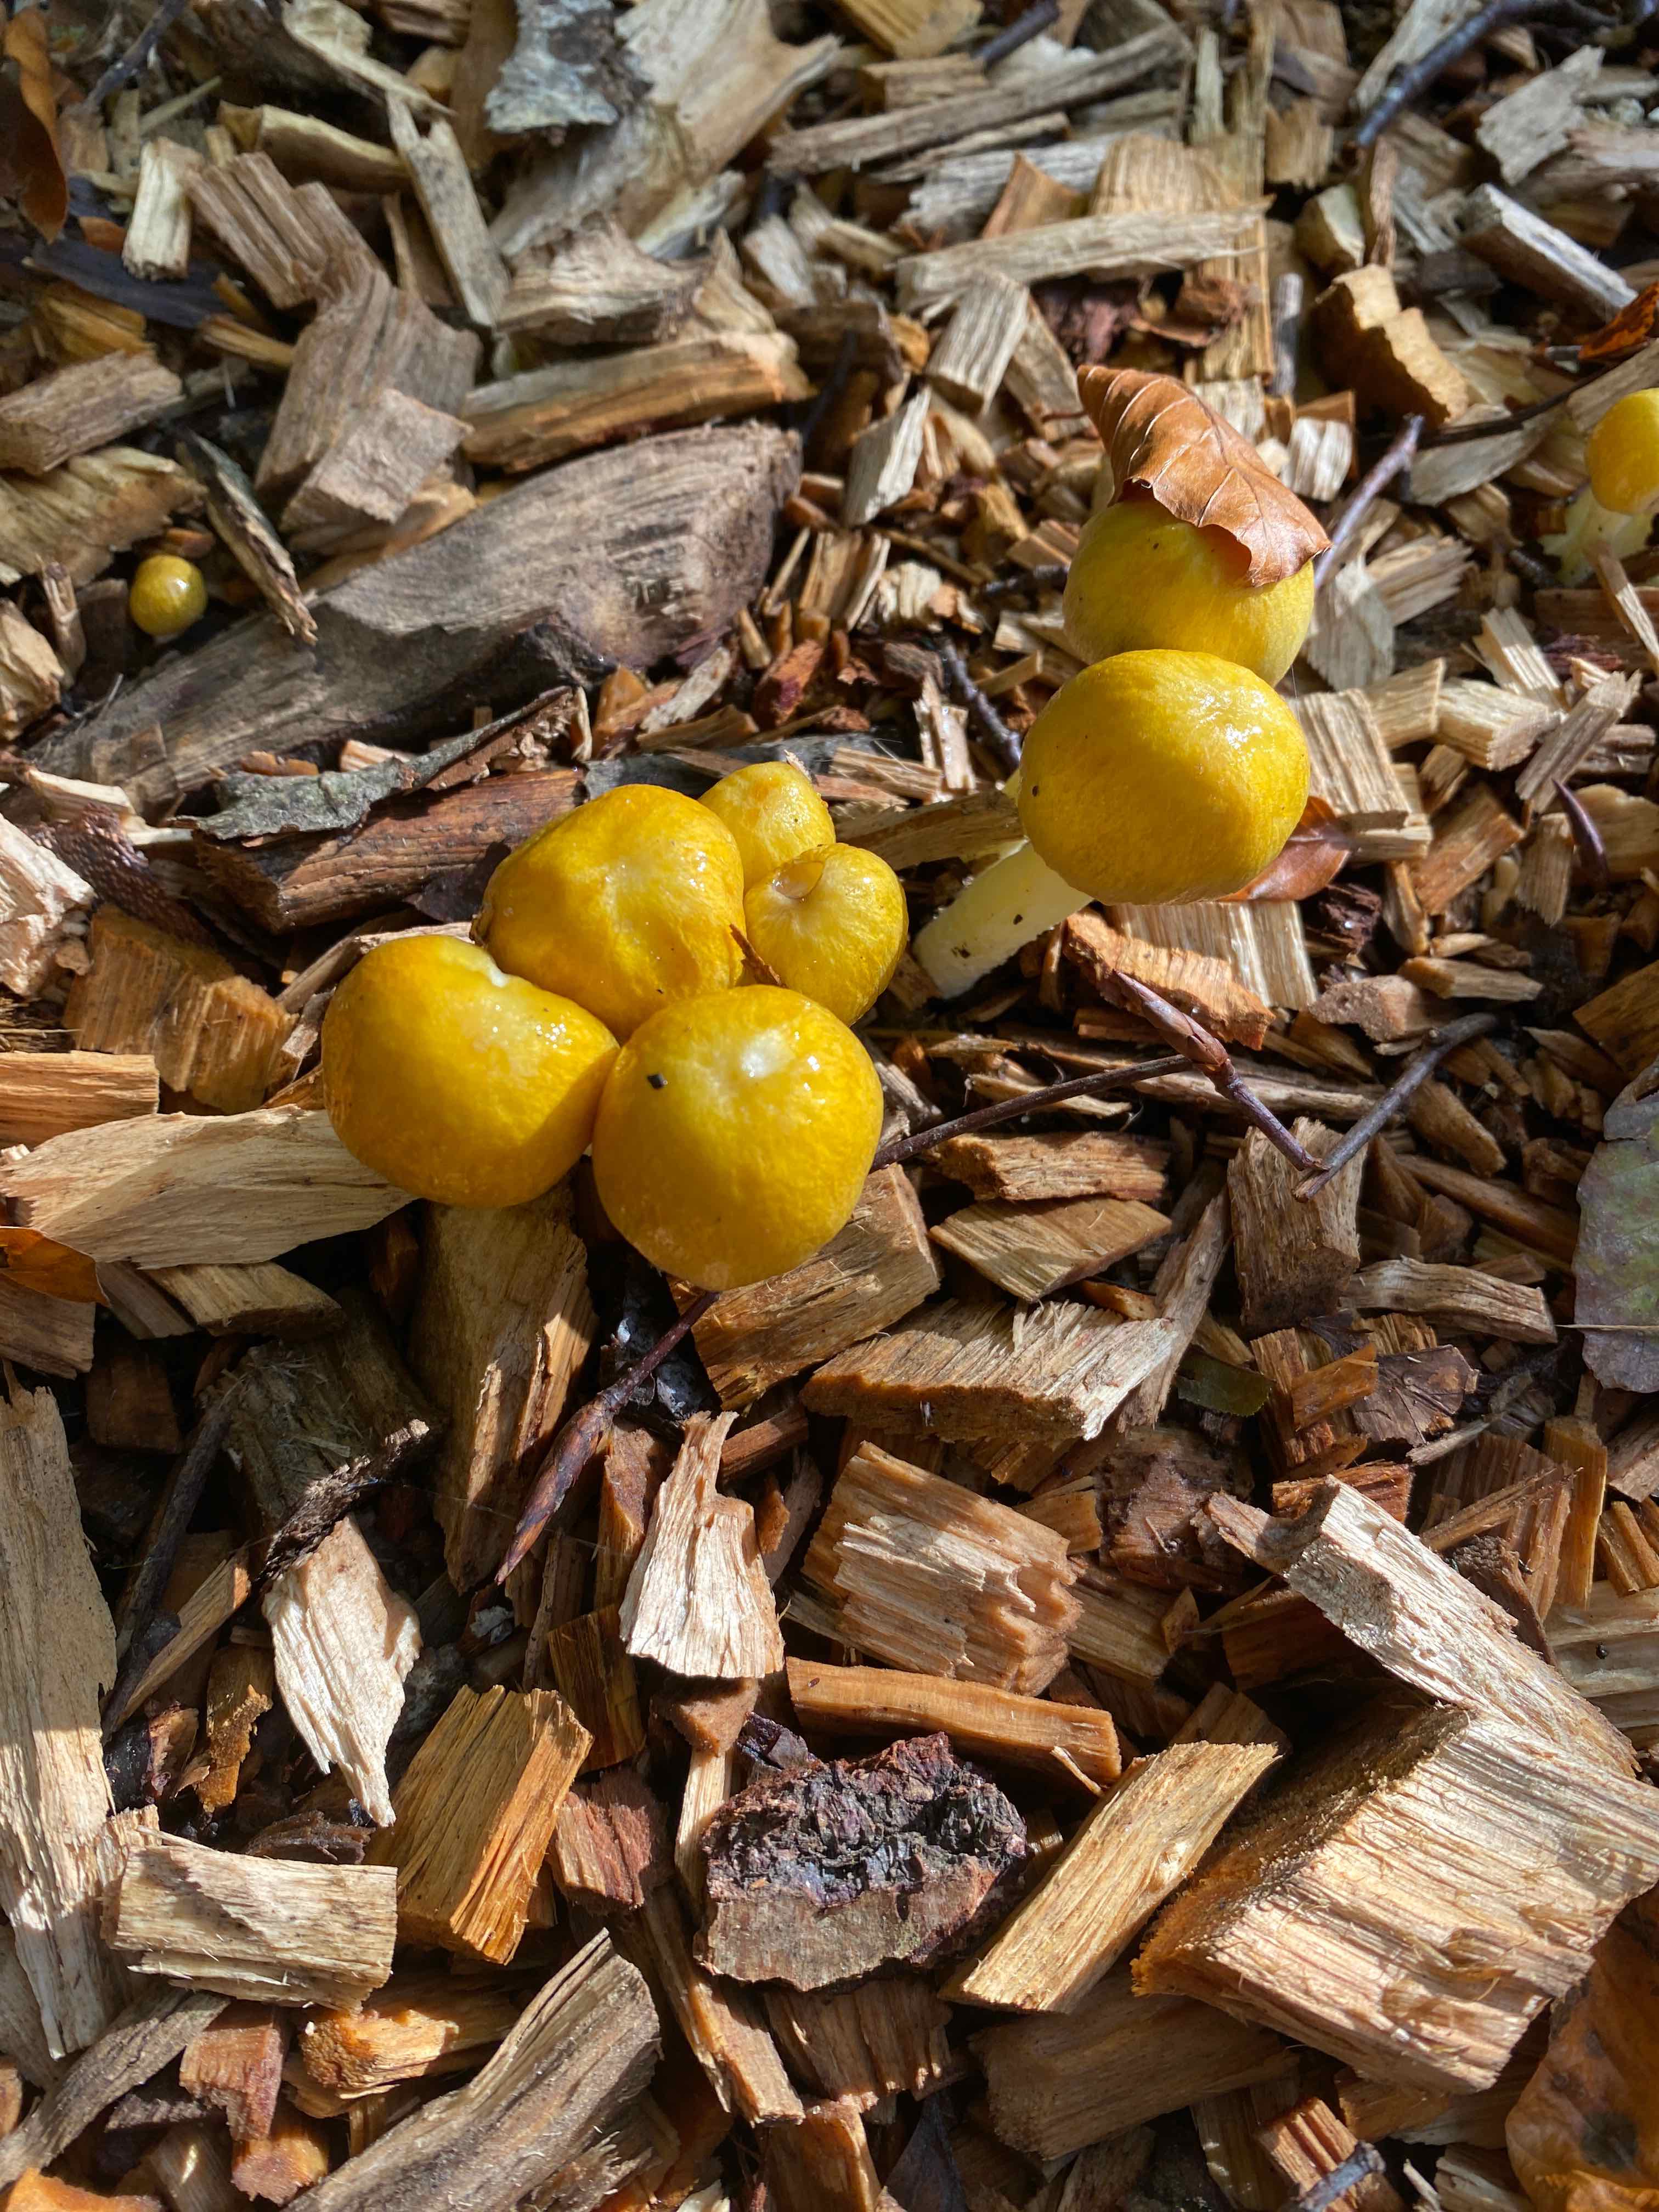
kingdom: Fungi
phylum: Basidiomycota
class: Agaricomycetes
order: Agaricales
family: Bolbitiaceae
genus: Bolbitius
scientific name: Bolbitius titubans
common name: almindelig gulhat
